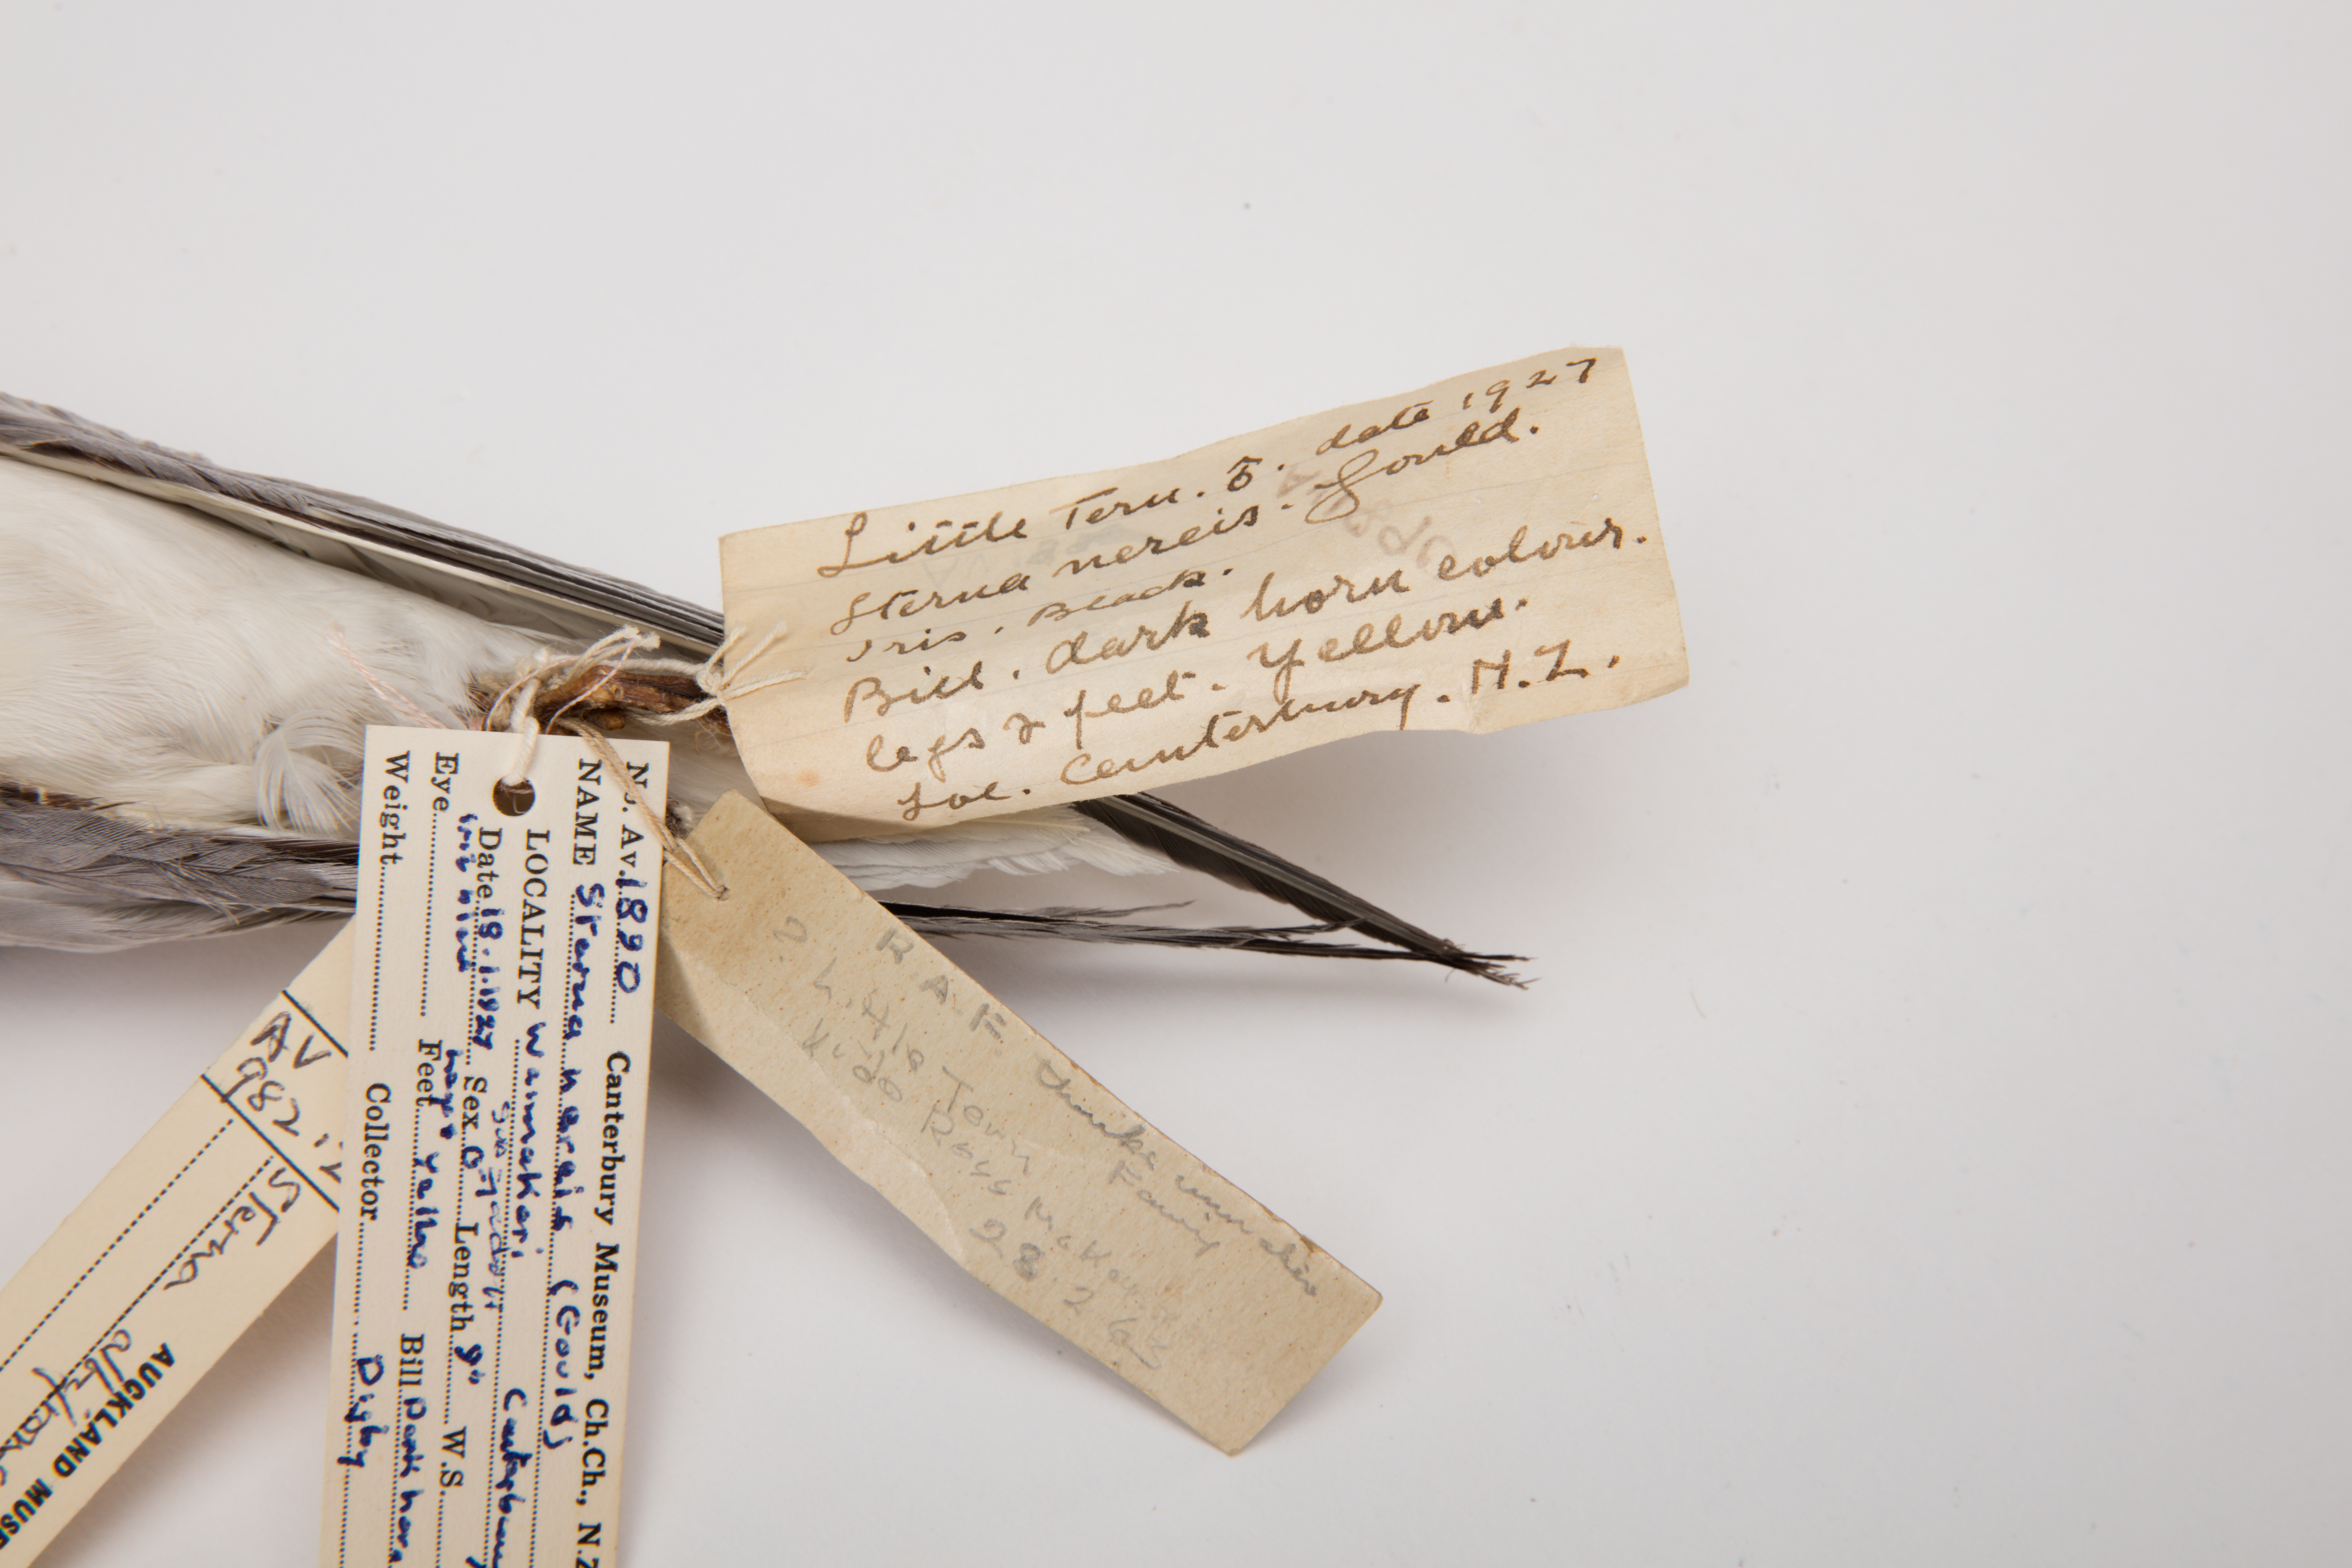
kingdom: Animalia
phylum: Chordata
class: Aves
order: Charadriiformes
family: Laridae
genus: Sternula
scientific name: Sternula albifrons
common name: Little tern
